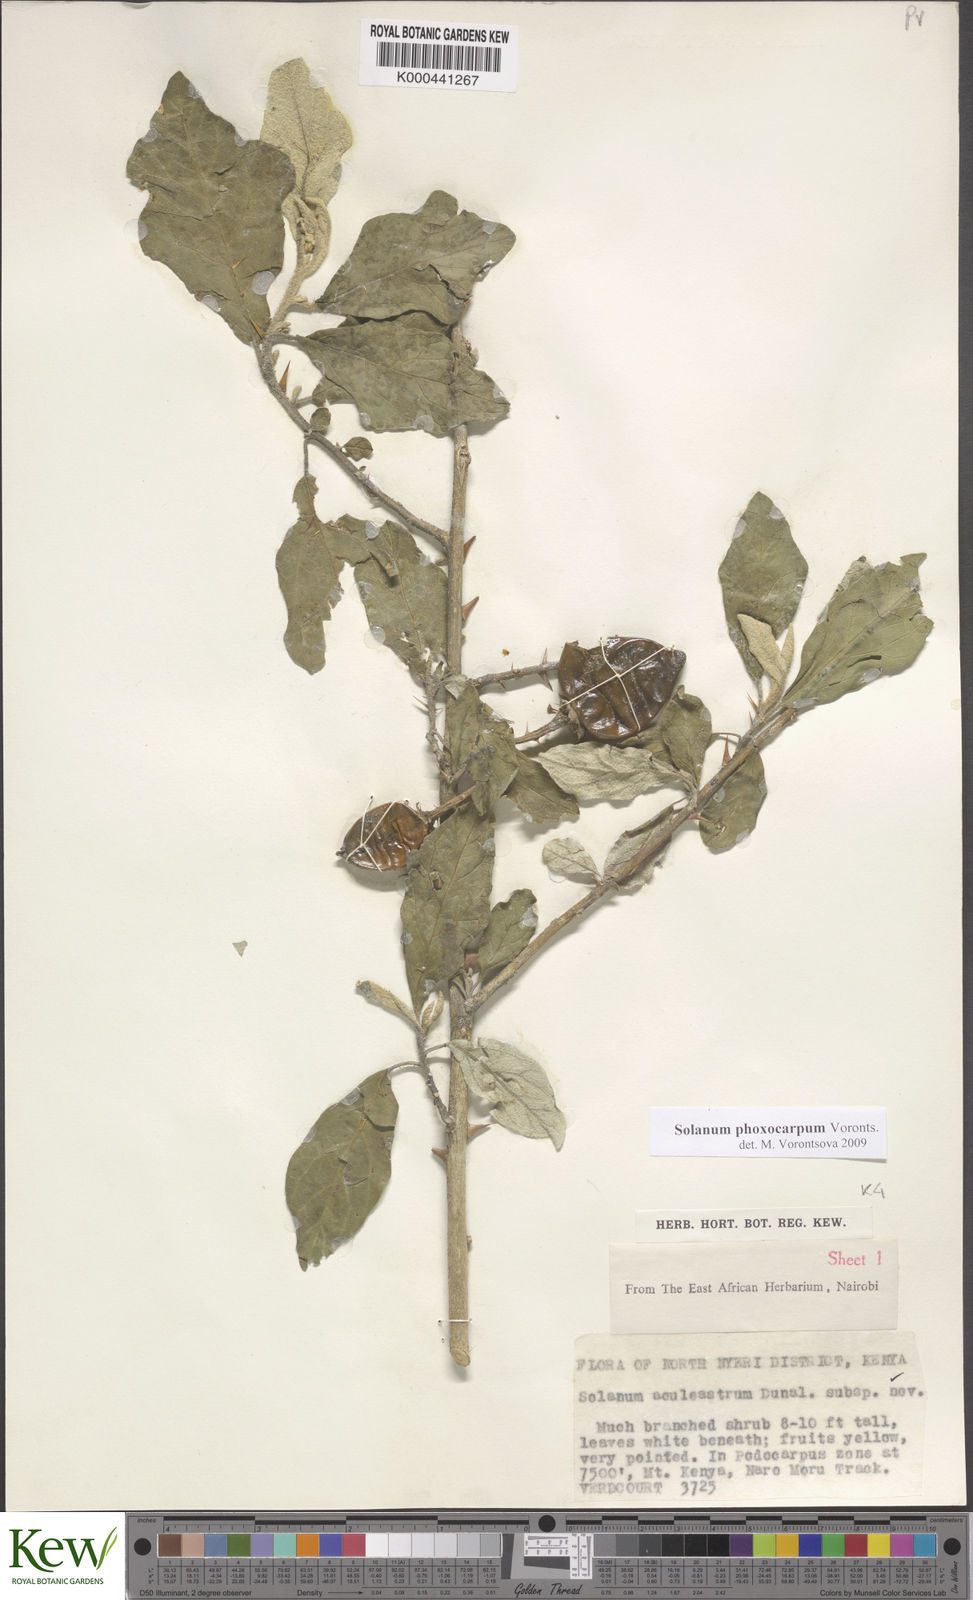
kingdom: Plantae
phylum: Tracheophyta
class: Magnoliopsida
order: Solanales
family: Solanaceae
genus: Solanum
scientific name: Solanum phoxocarpum
